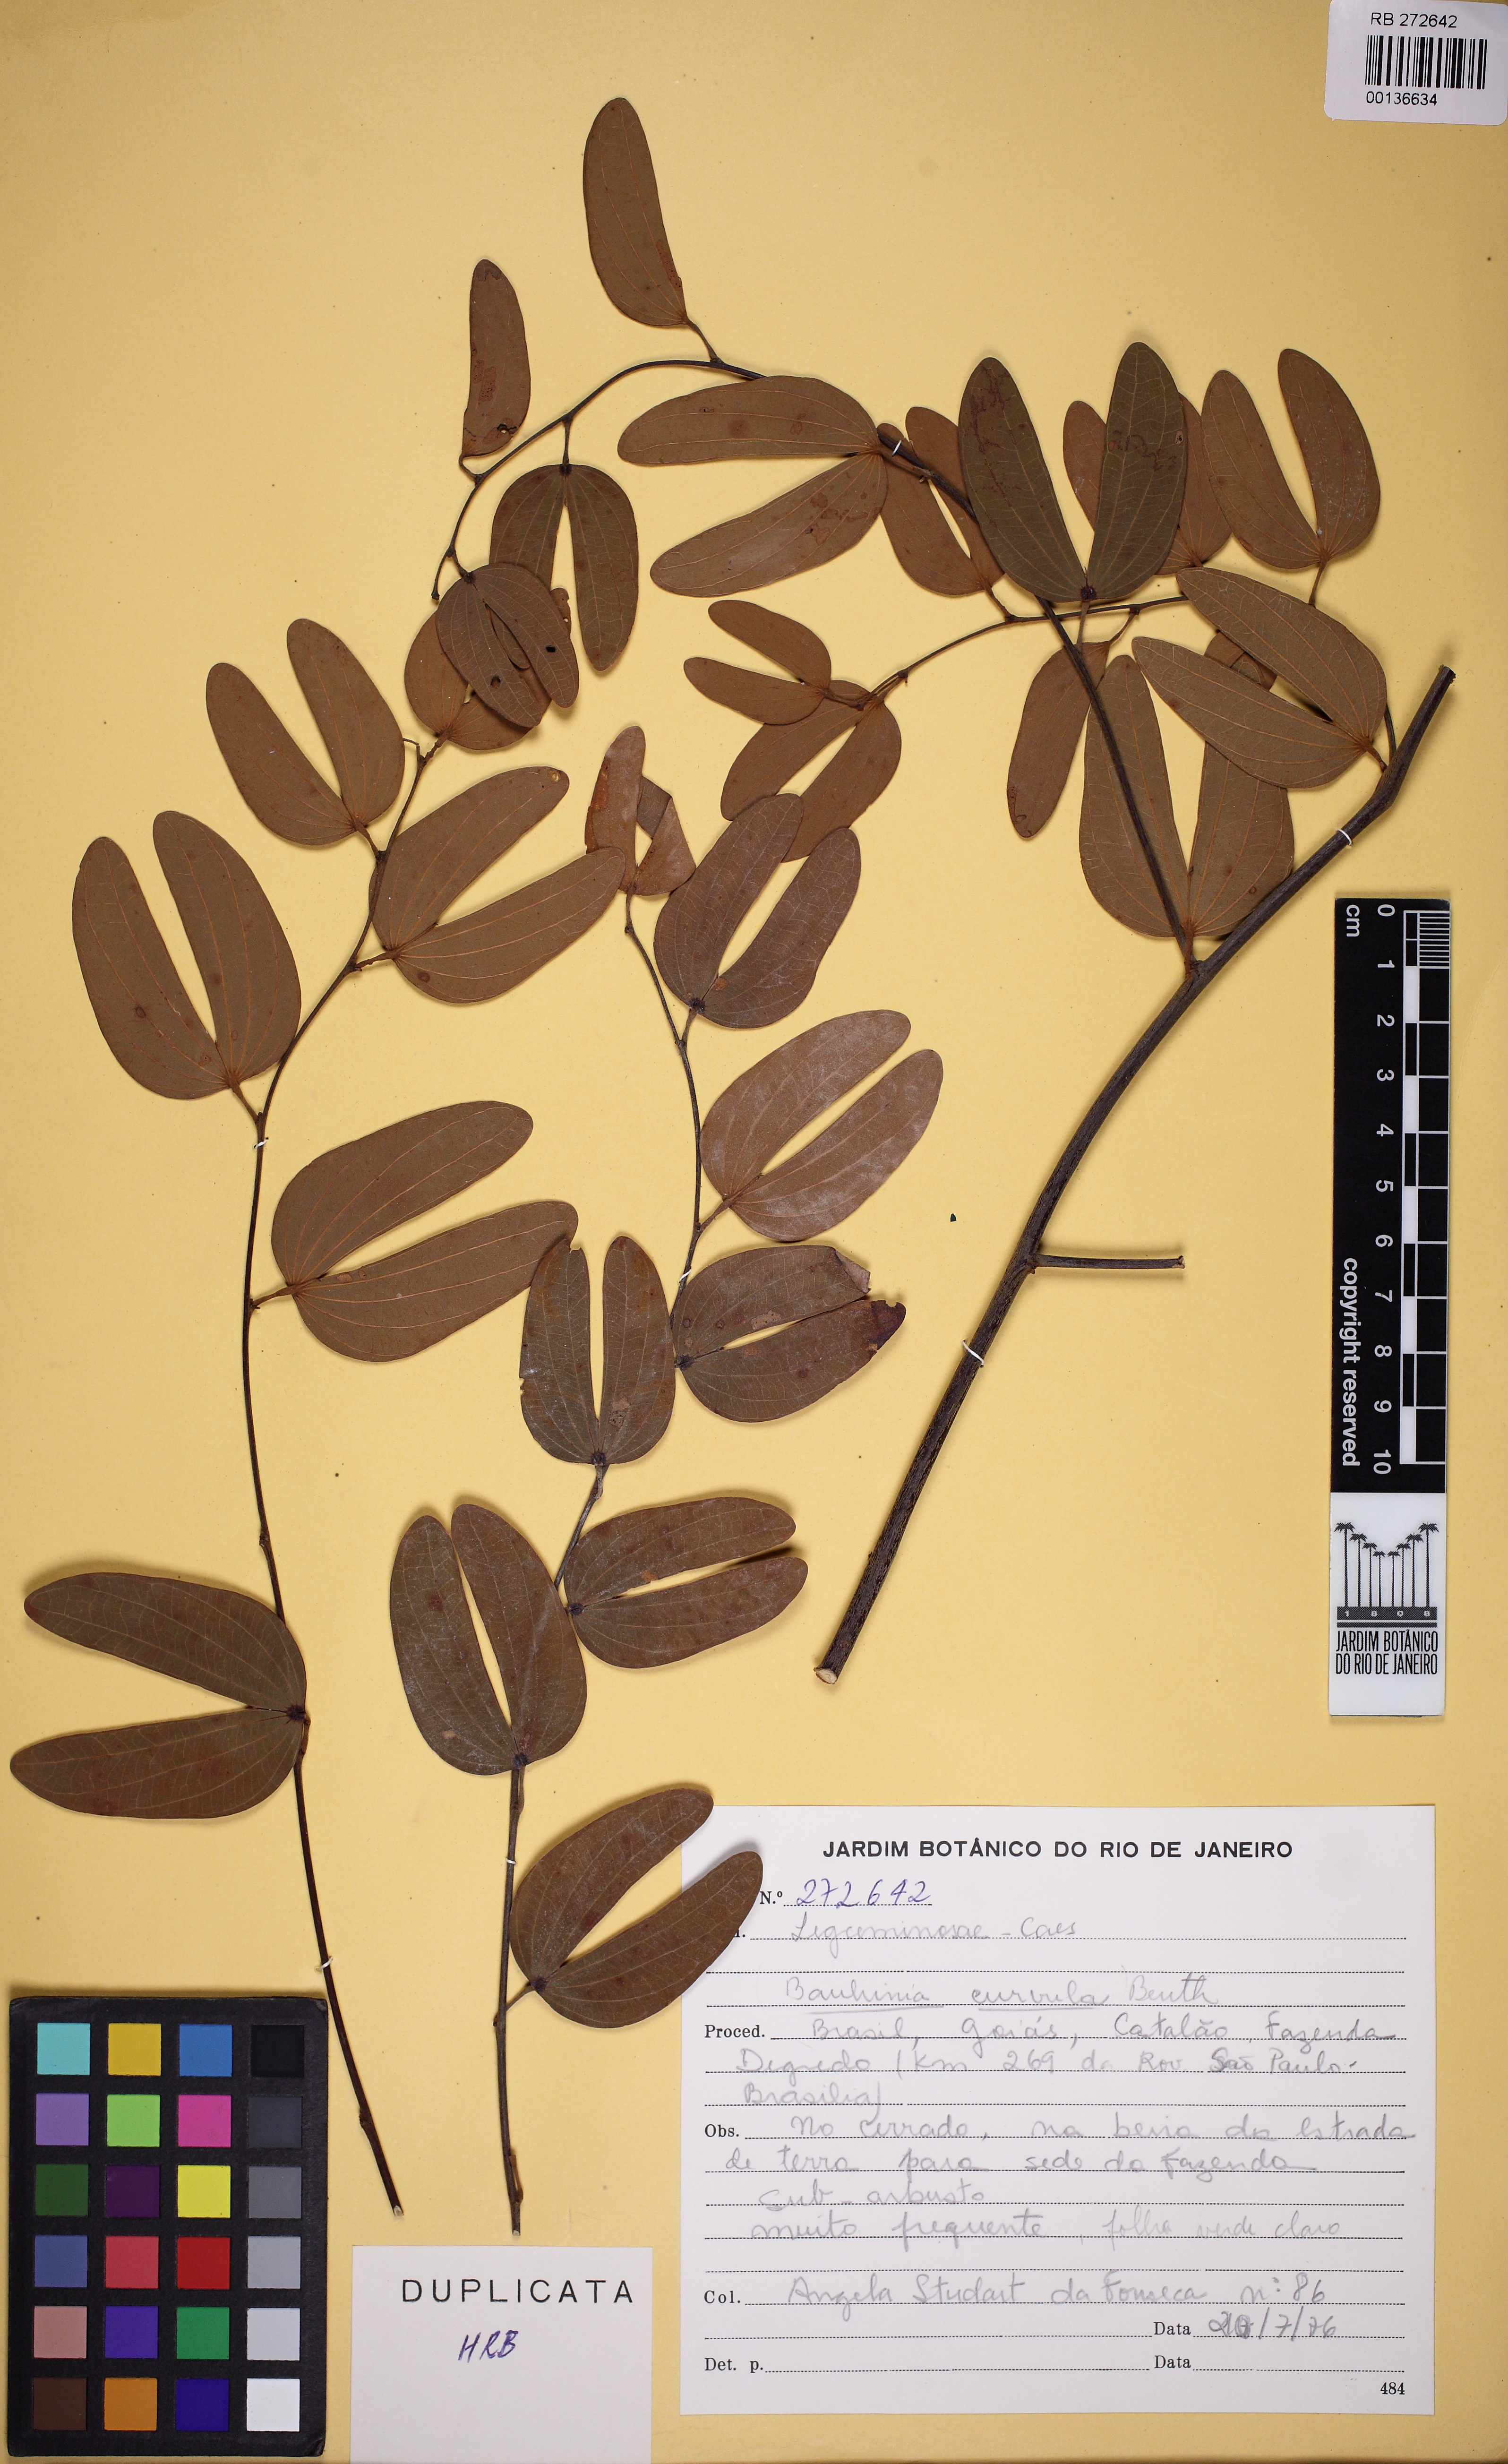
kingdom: Plantae
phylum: Tracheophyta
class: Magnoliopsida
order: Fabales
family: Fabaceae
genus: Bauhinia
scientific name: Bauhinia curvula
